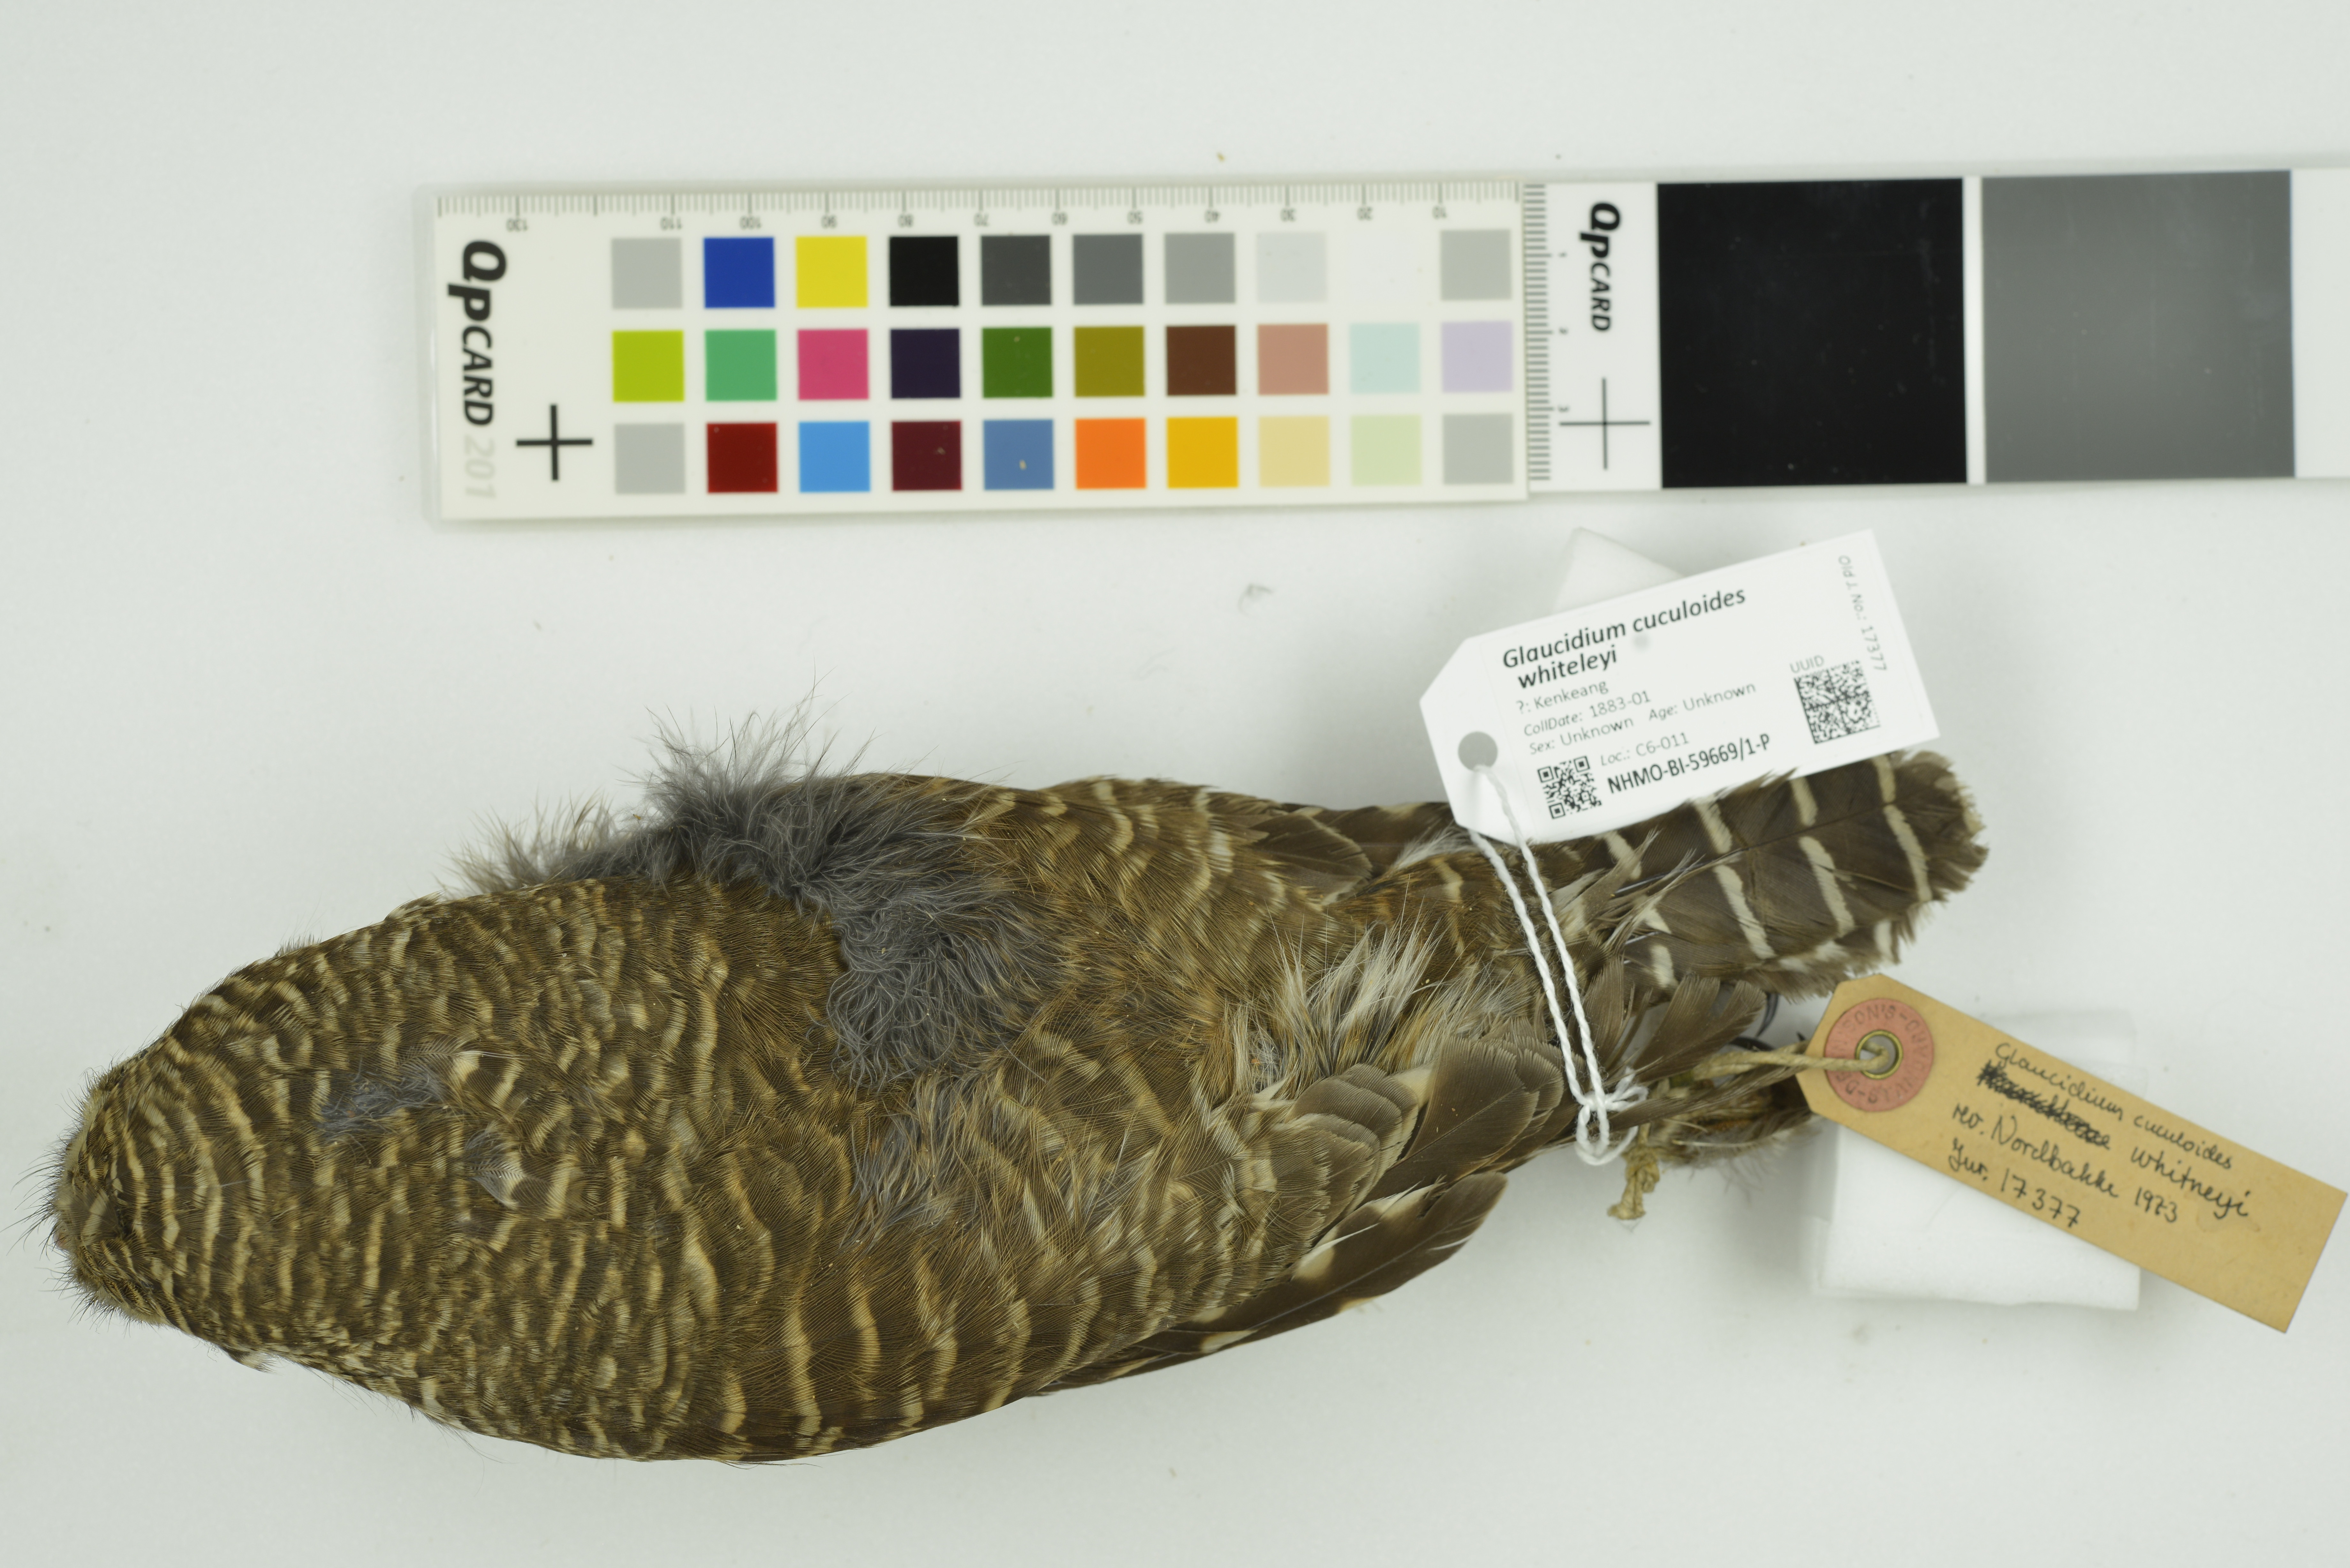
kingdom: Animalia
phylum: Chordata
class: Aves
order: Strigiformes
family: Strigidae
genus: Glaucidium
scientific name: Glaucidium cuculoides
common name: Asian barred owlet
